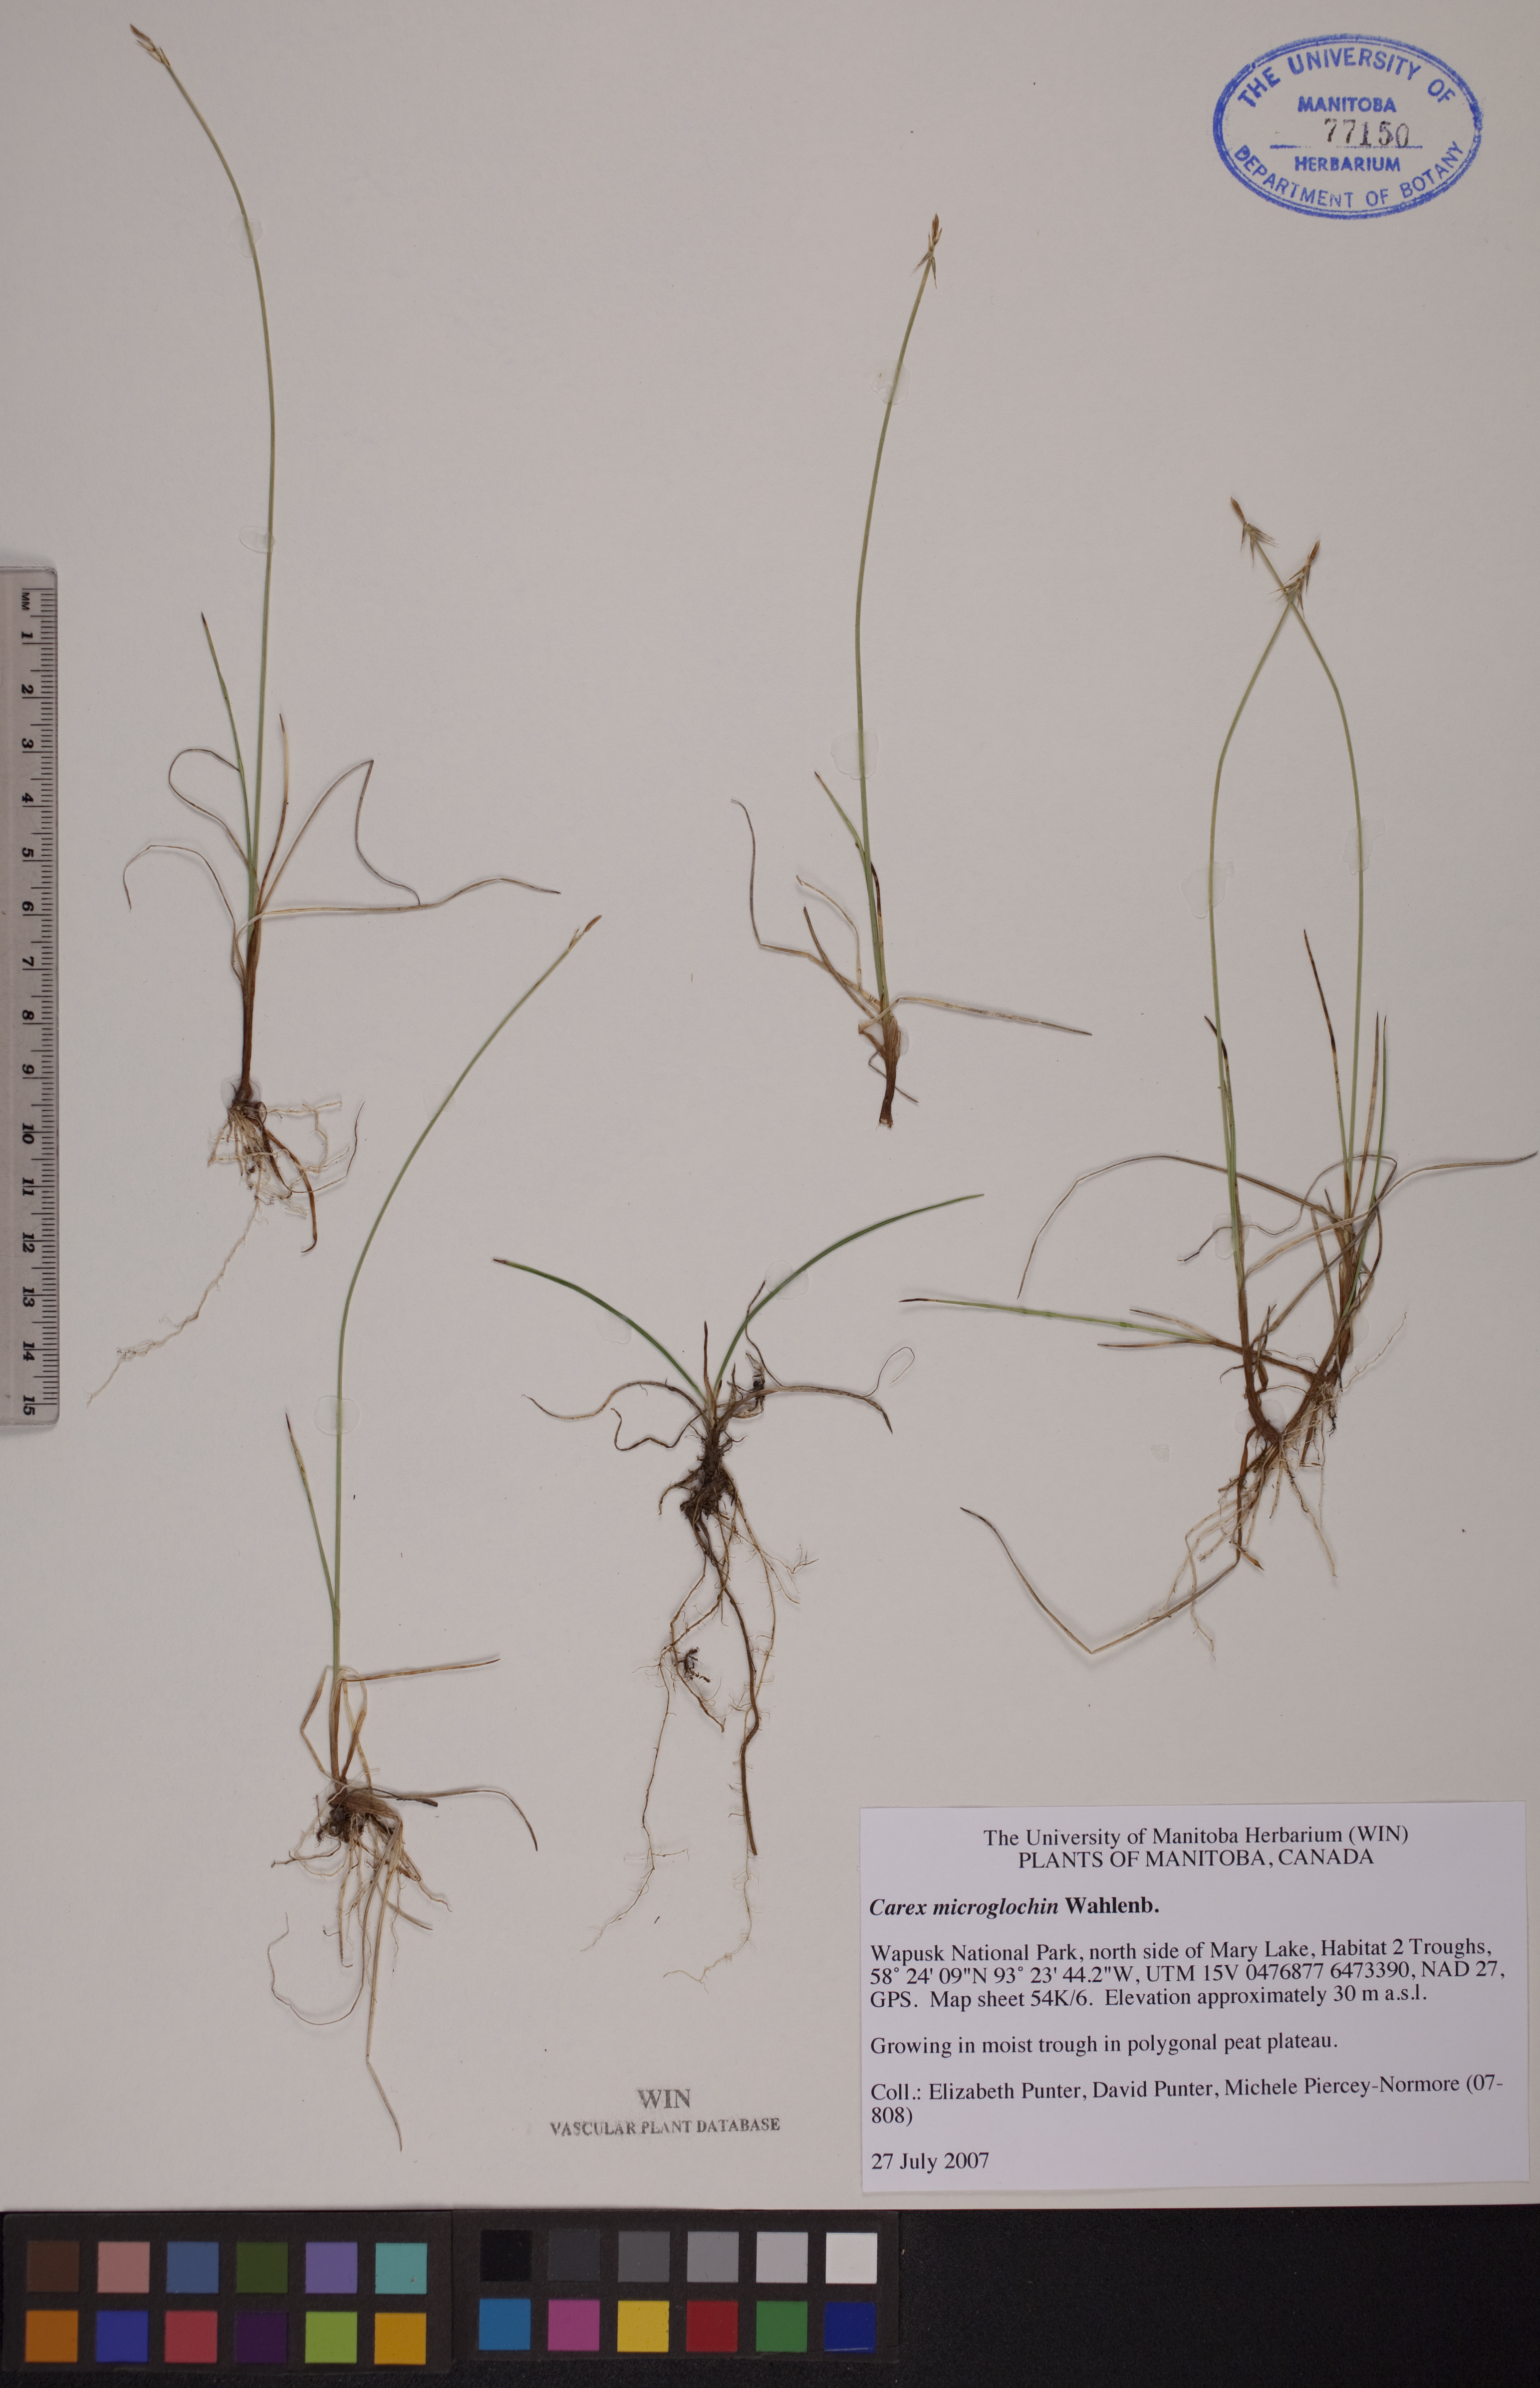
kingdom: Plantae
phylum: Tracheophyta
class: Liliopsida
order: Poales
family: Cyperaceae
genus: Carex
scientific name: Carex microglochin
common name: Bristle sedge
